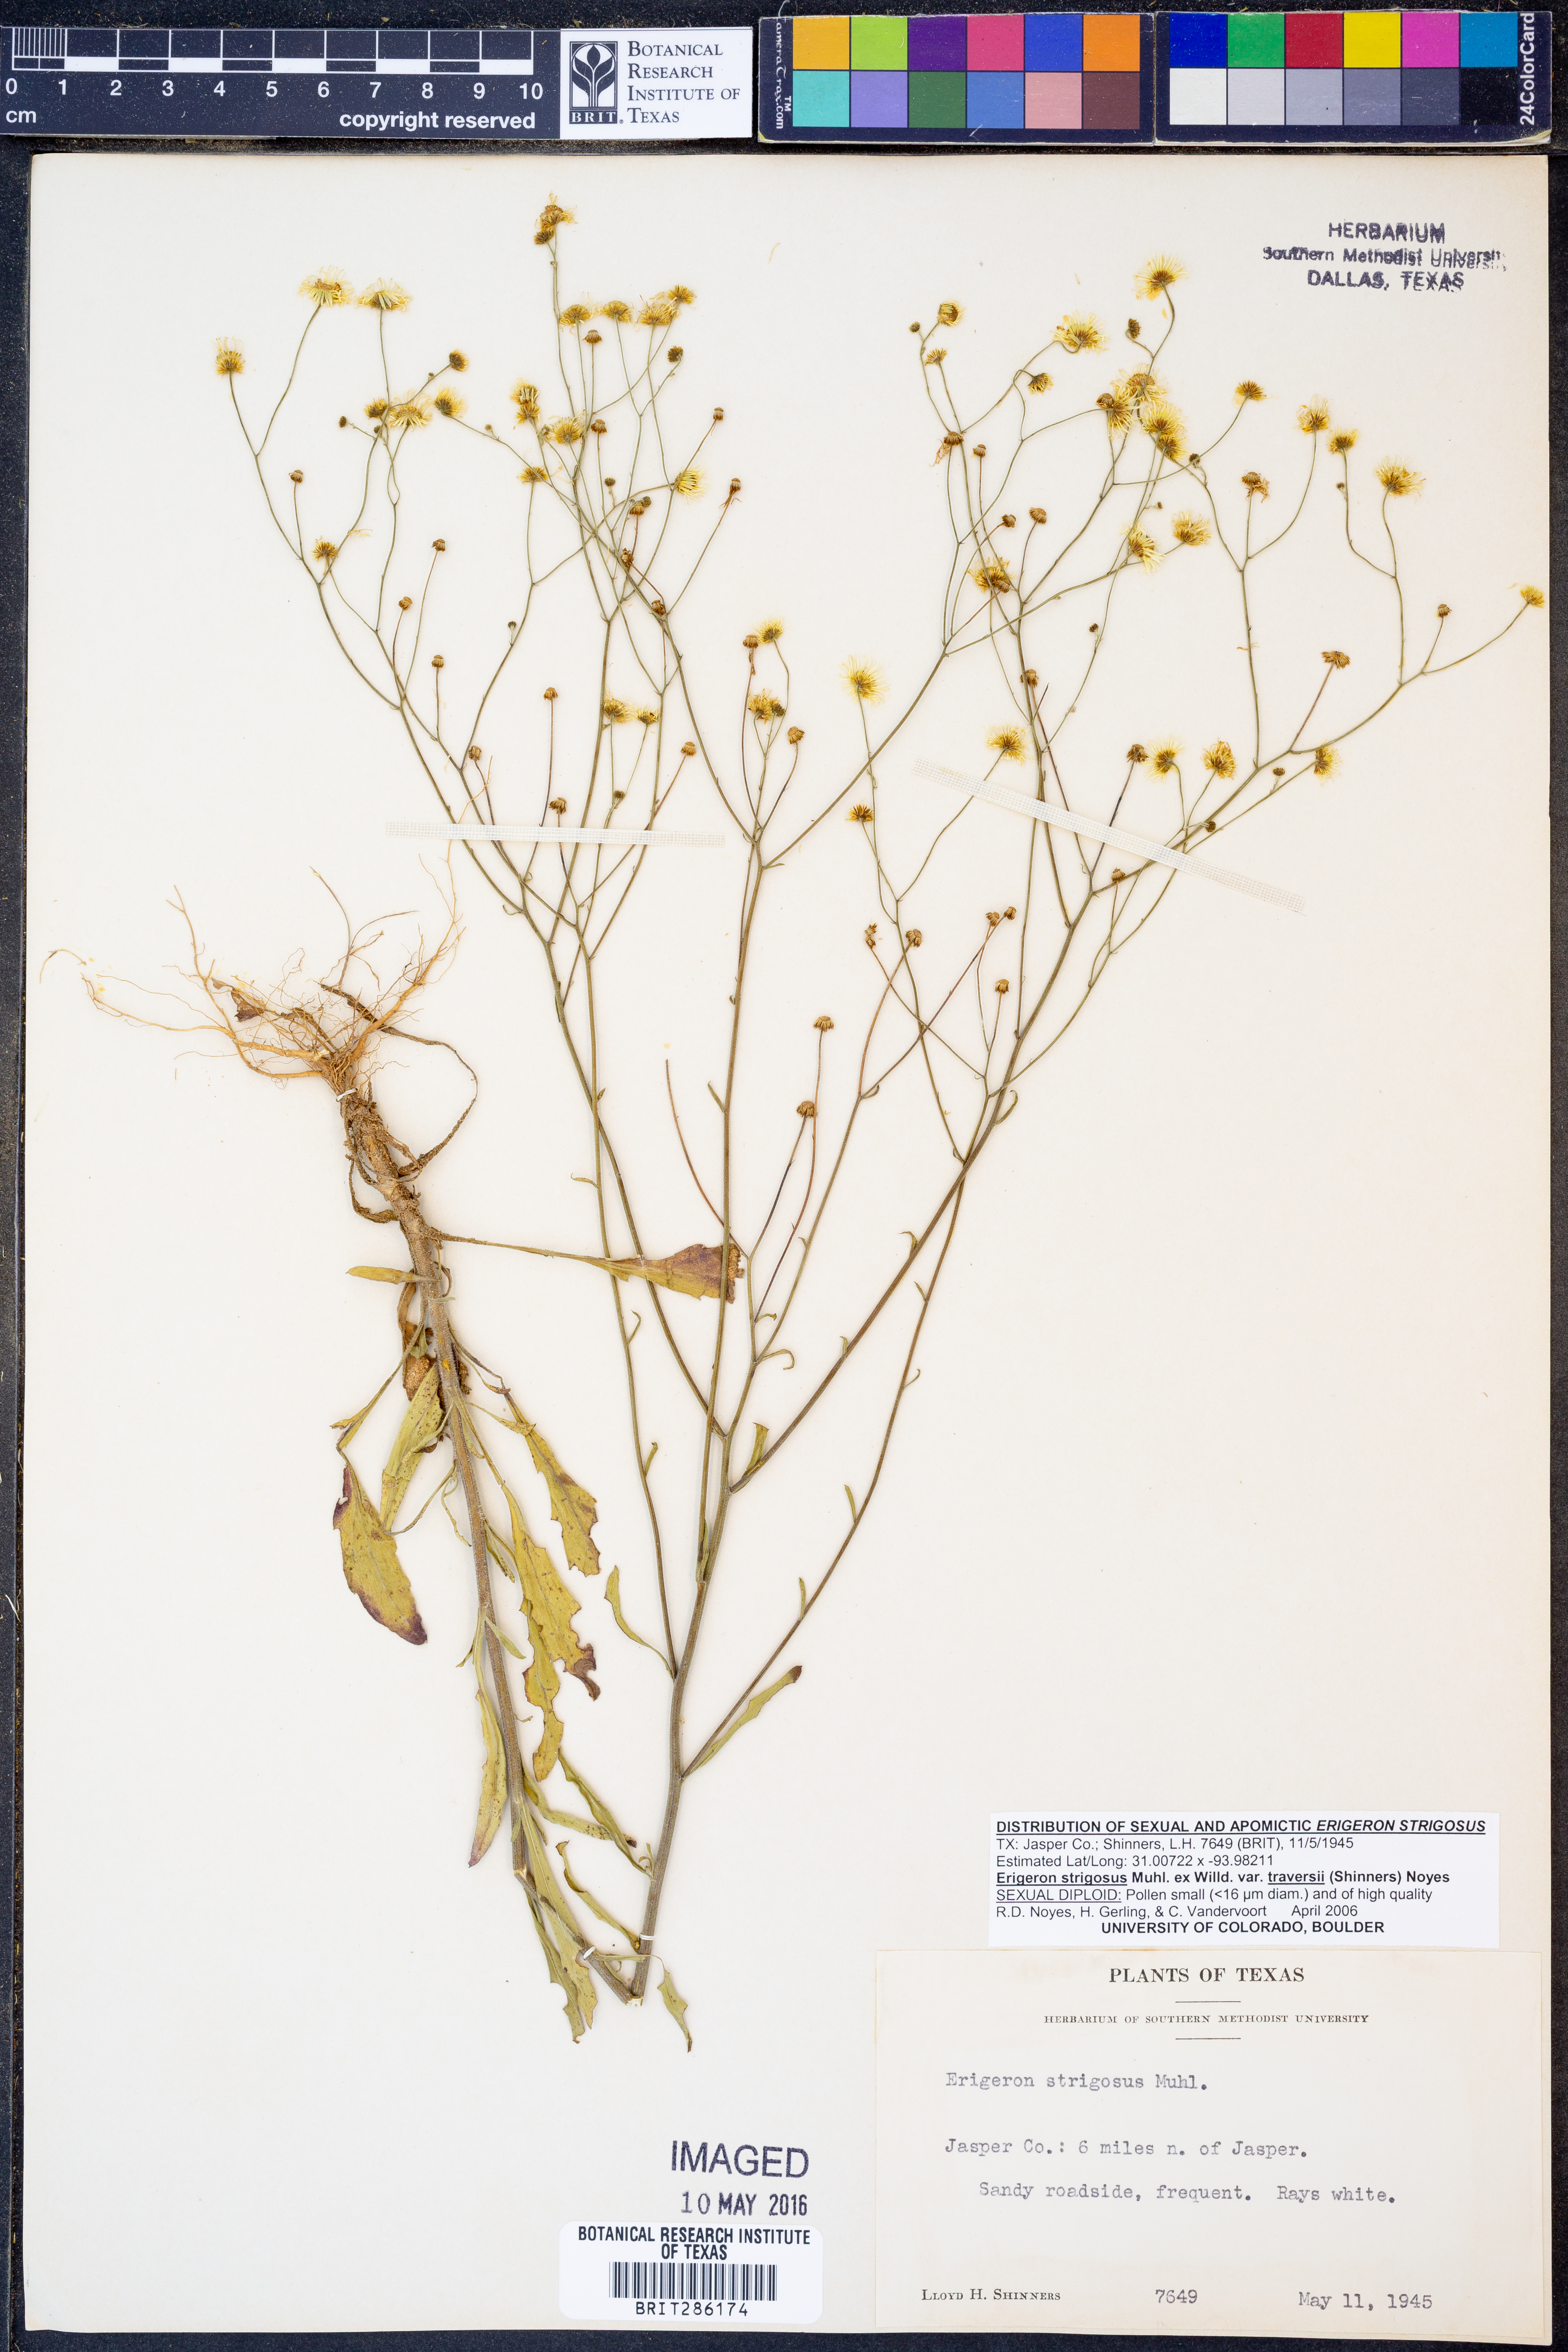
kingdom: Plantae
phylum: Tracheophyta
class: Magnoliopsida
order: Asterales
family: Asteraceae
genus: Erigeron
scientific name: Erigeron annuus
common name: Tall fleabane
